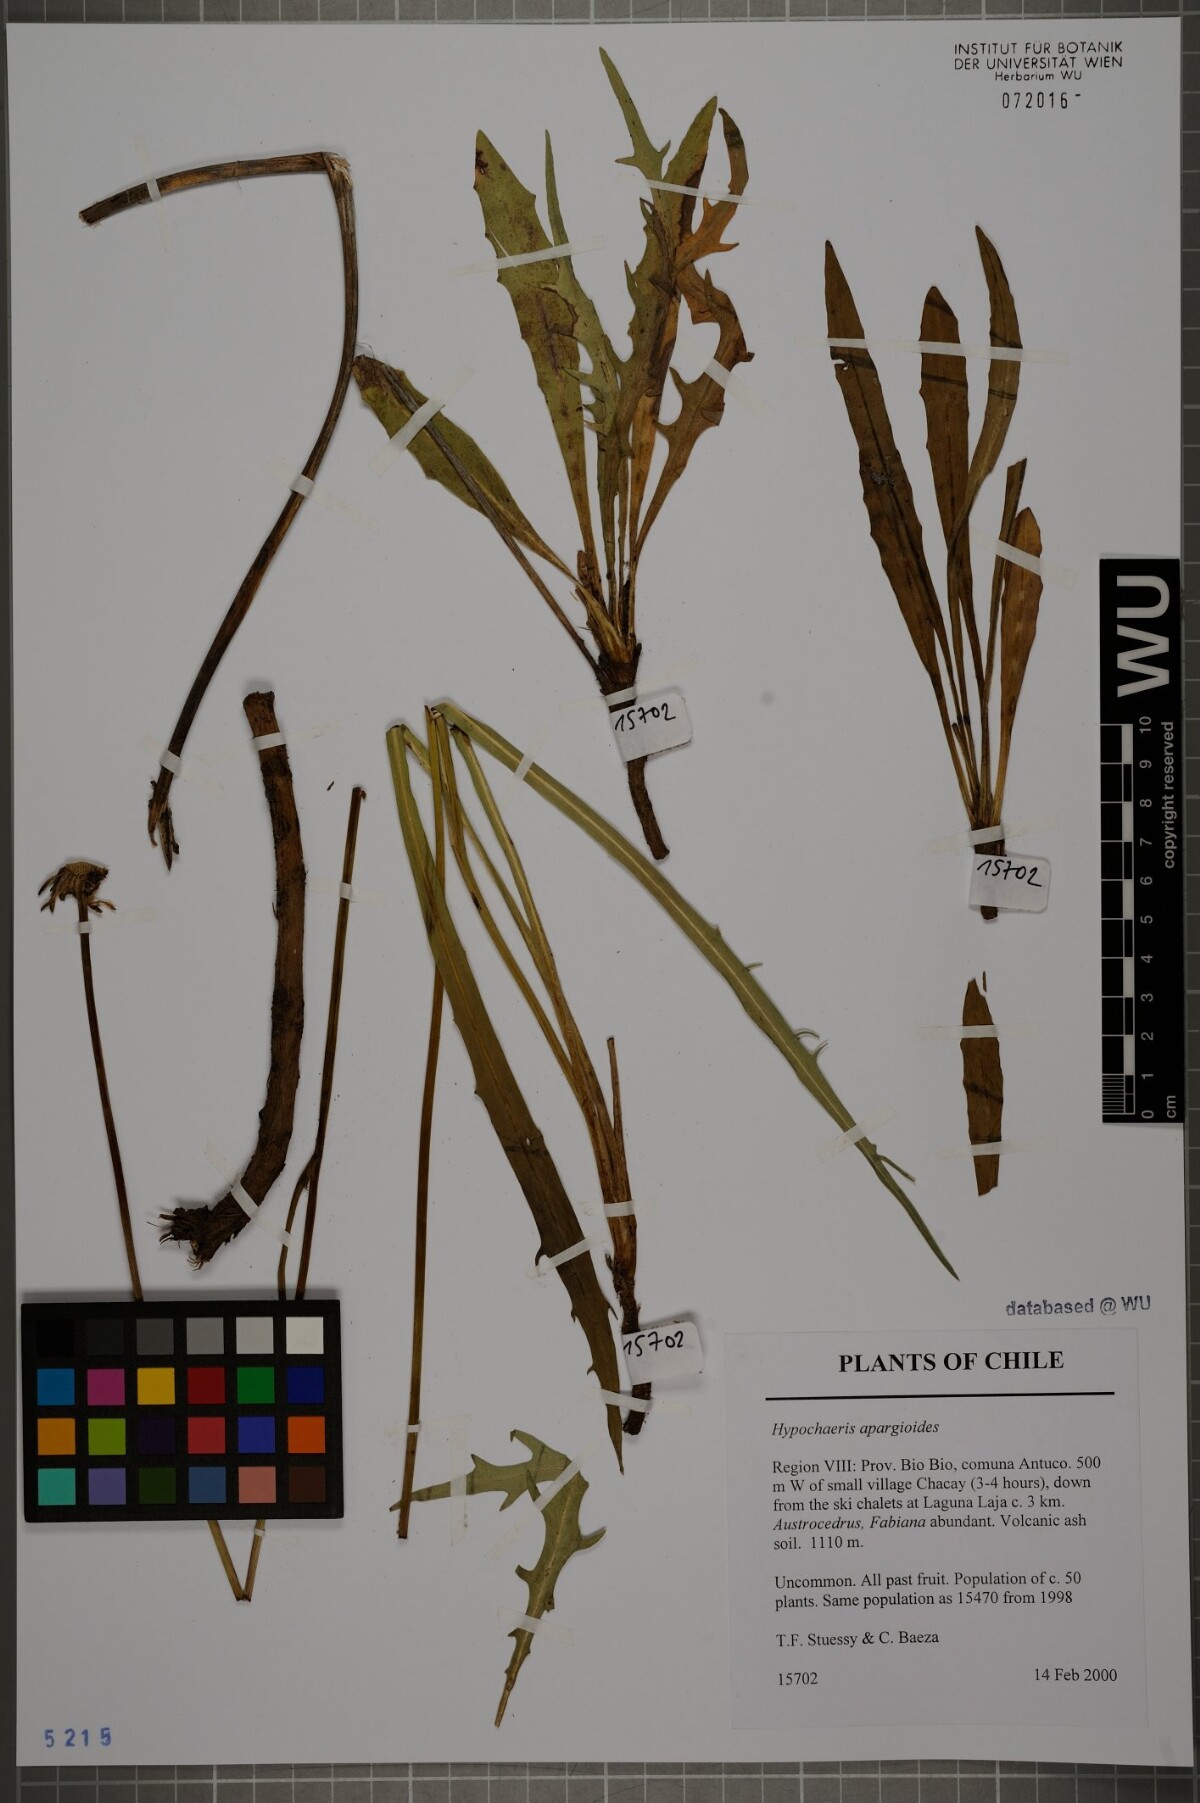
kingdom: Plantae
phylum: Tracheophyta
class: Magnoliopsida
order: Asterales
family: Asteraceae
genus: Hypochaeris
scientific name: Hypochaeris apargioides
